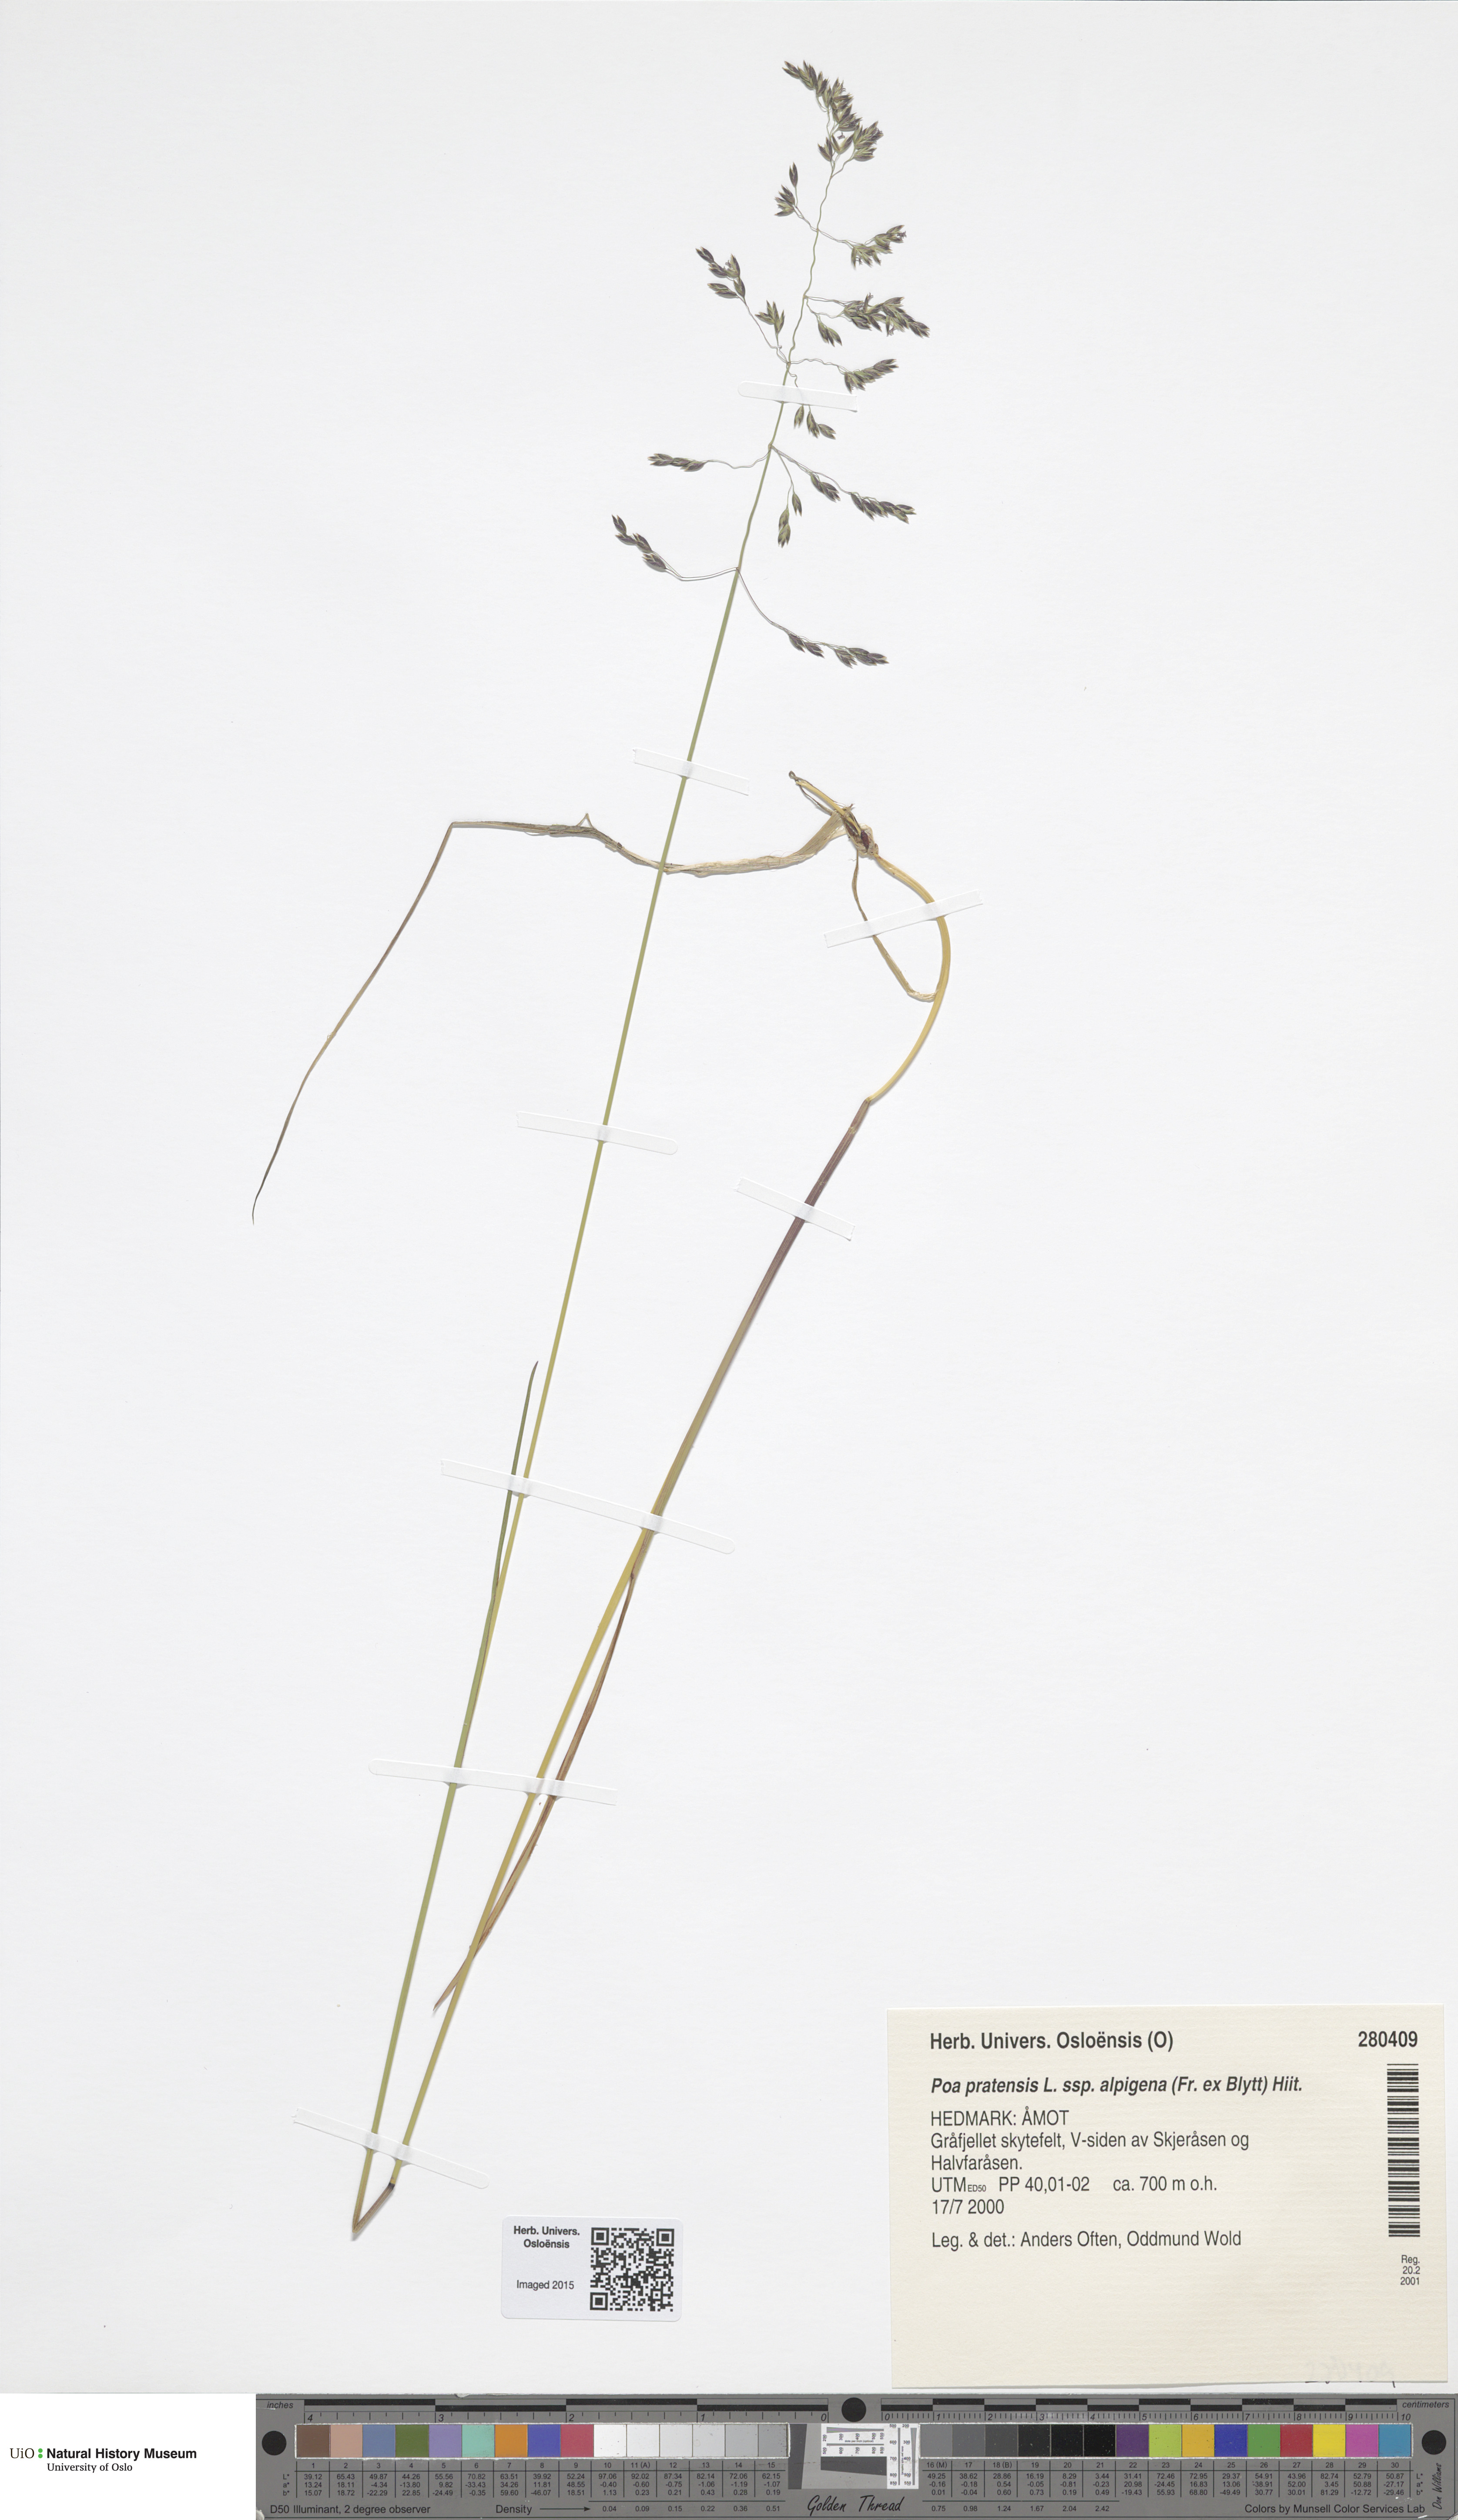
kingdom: Plantae
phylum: Tracheophyta
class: Liliopsida
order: Poales
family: Poaceae
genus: Poa
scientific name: Poa alpigena
